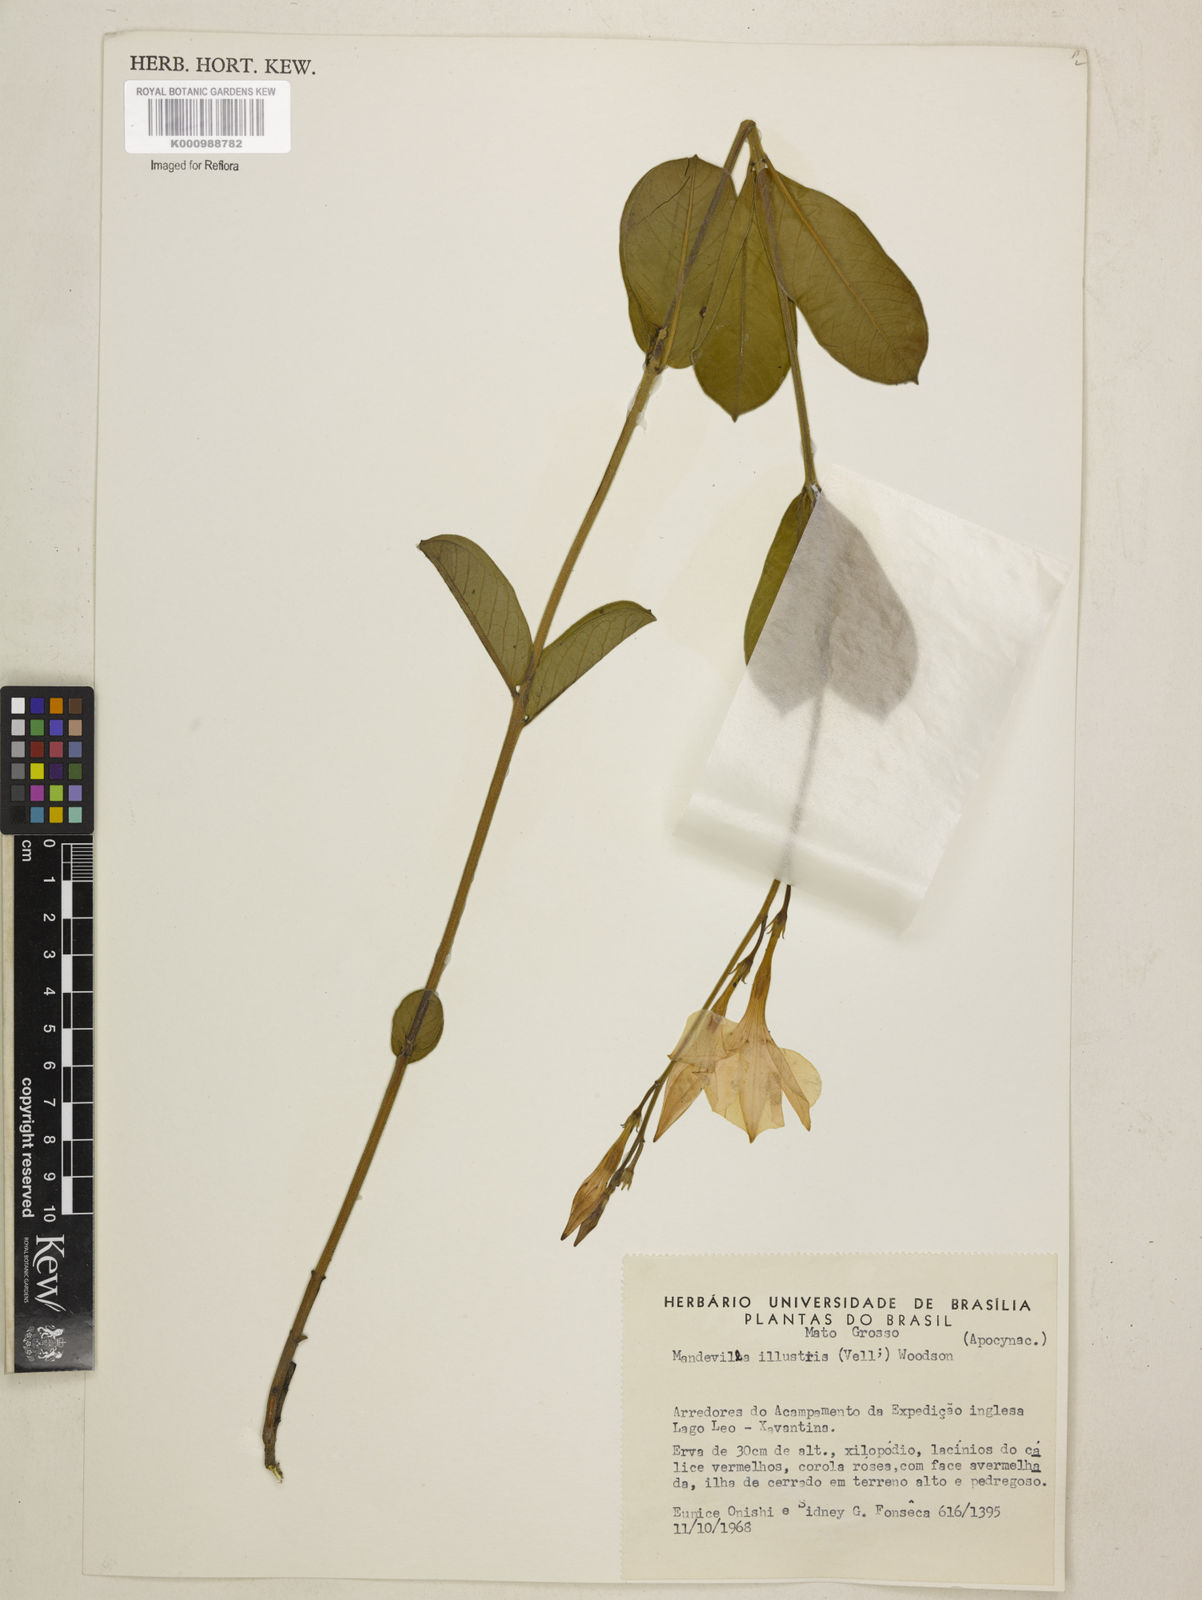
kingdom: Plantae
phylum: Tracheophyta
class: Magnoliopsida
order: Gentianales
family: Apocynaceae
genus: Mandevilla
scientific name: Mandevilla illustris
